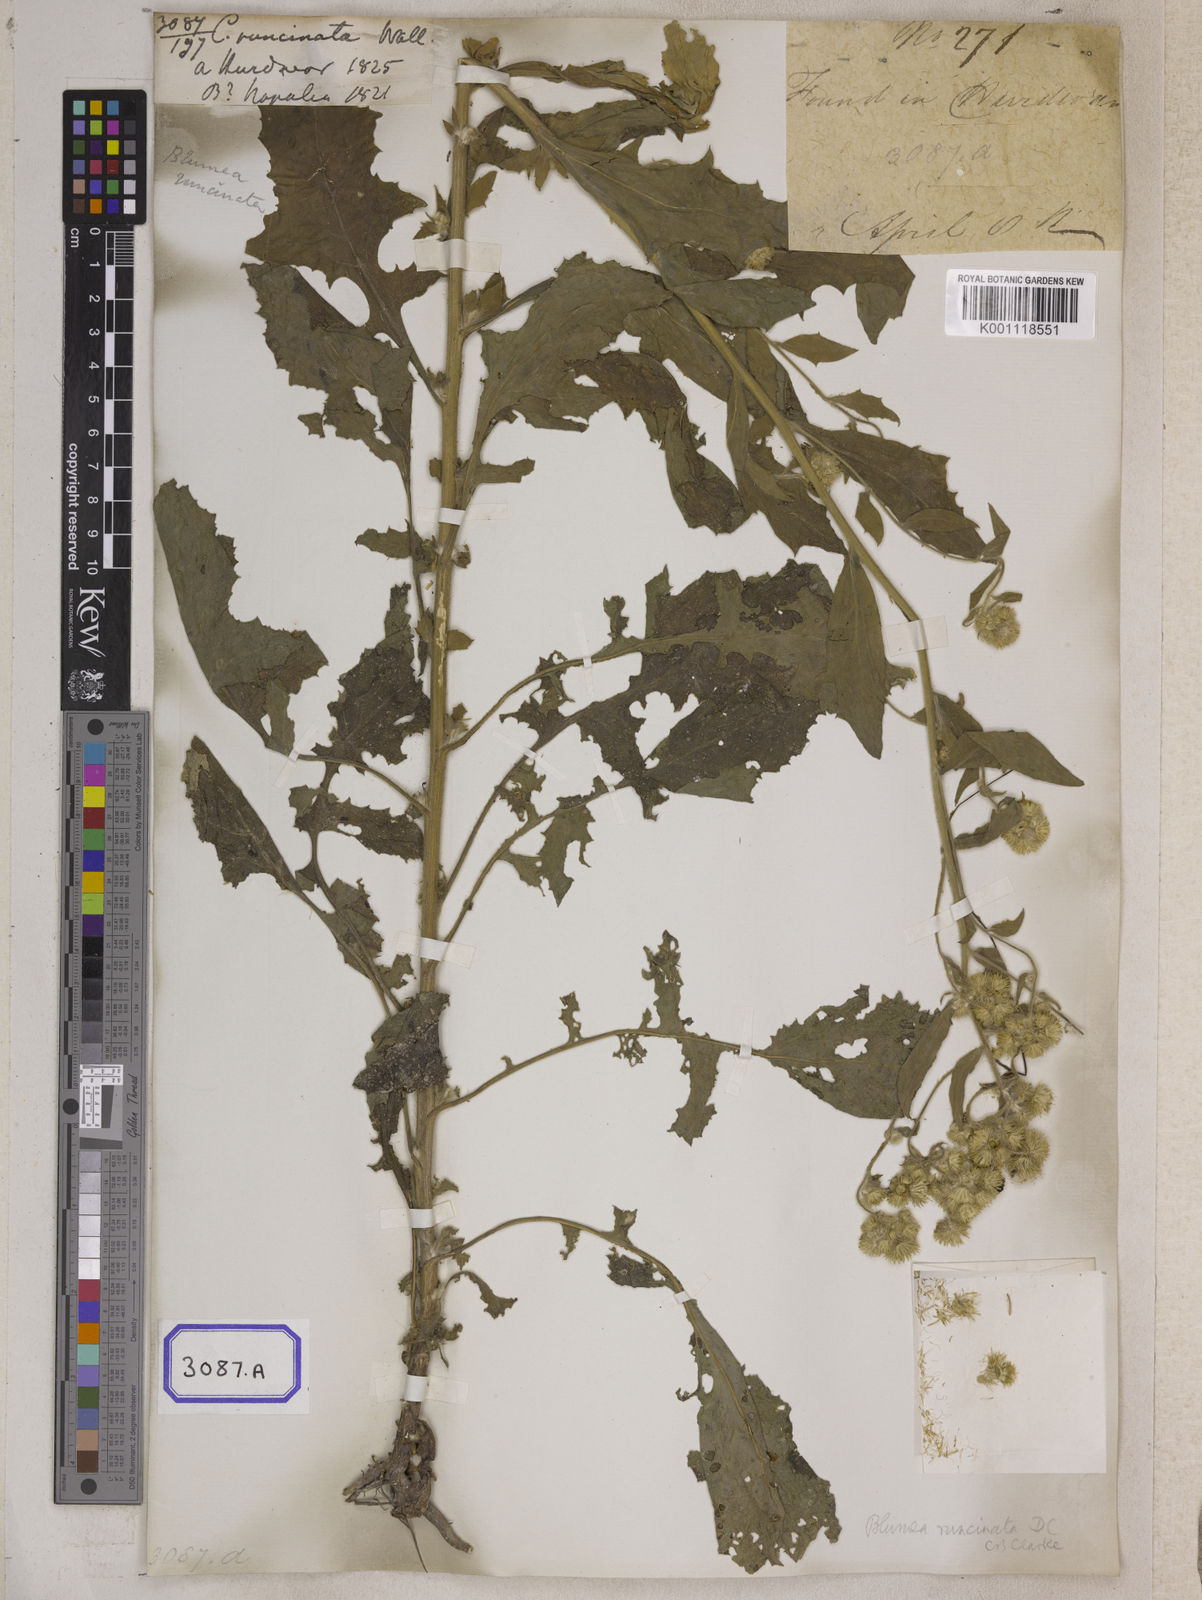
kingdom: Plantae
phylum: Tracheophyta
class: Magnoliopsida
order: Asterales
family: Asteraceae
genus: Blumea
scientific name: Blumea sinuata
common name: Cutleaf false oxtongue
